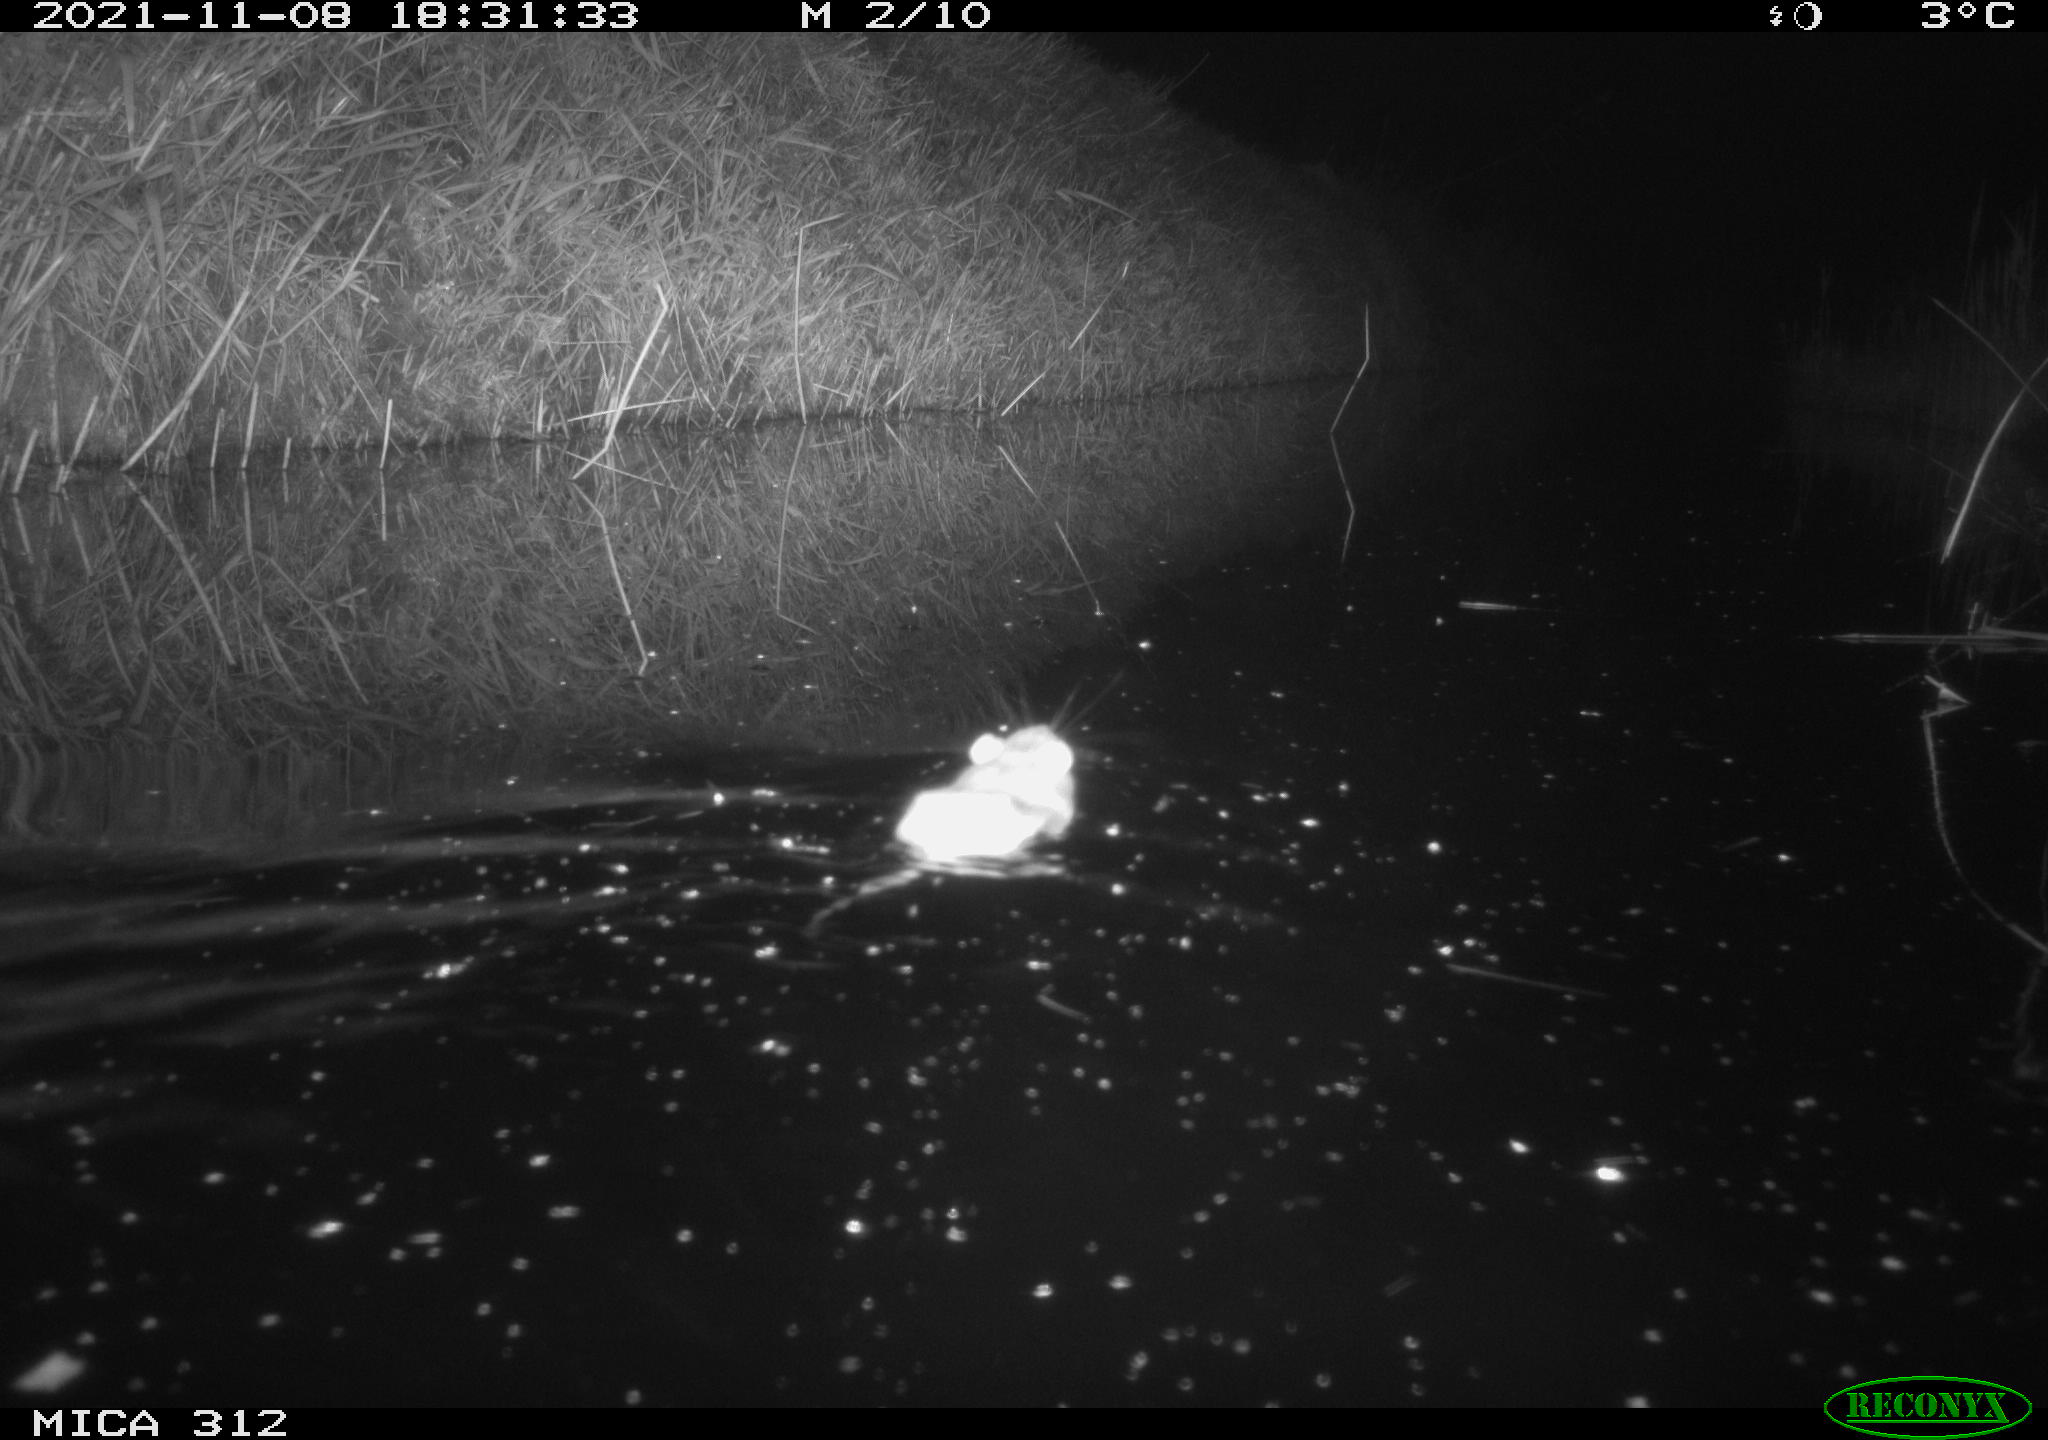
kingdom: Animalia
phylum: Chordata
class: Mammalia
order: Rodentia
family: Muridae
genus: Rattus
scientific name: Rattus norvegicus
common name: Brown rat
